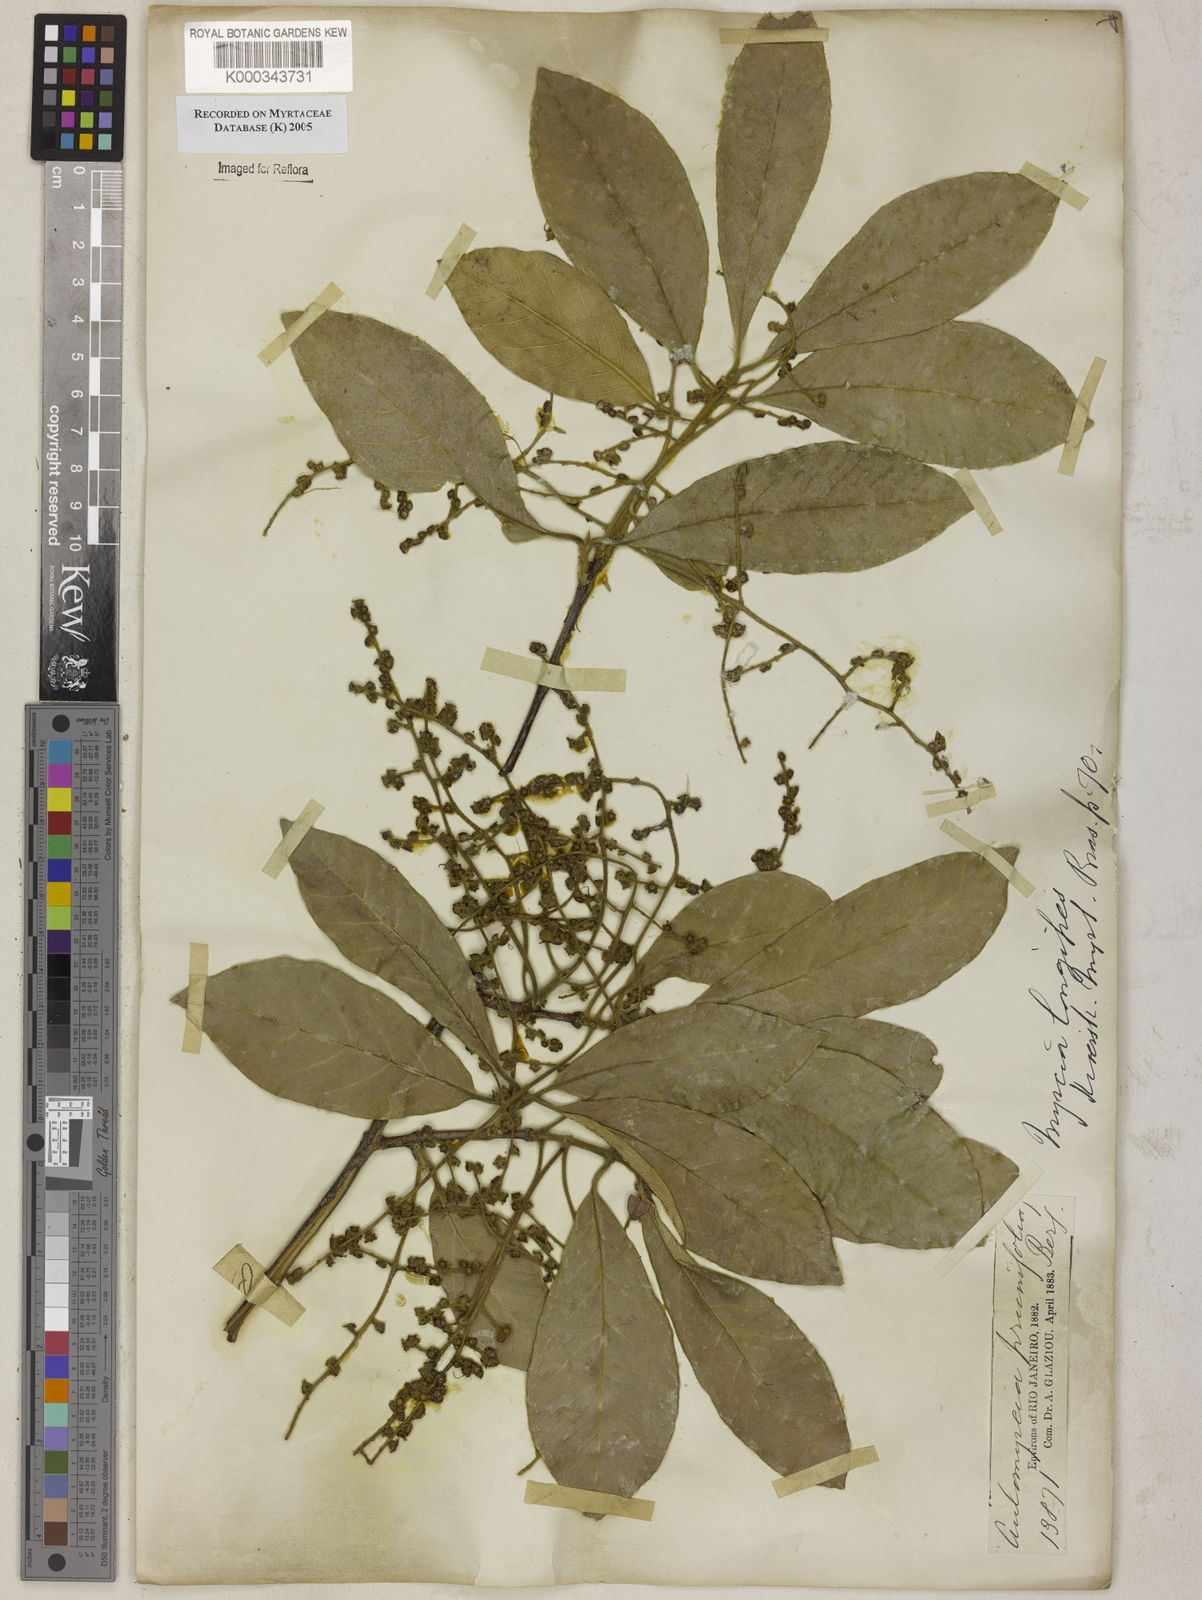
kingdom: Plantae
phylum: Tracheophyta
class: Magnoliopsida
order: Myrtales
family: Myrtaceae
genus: Myrcia
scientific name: Myrcia tomentosa
